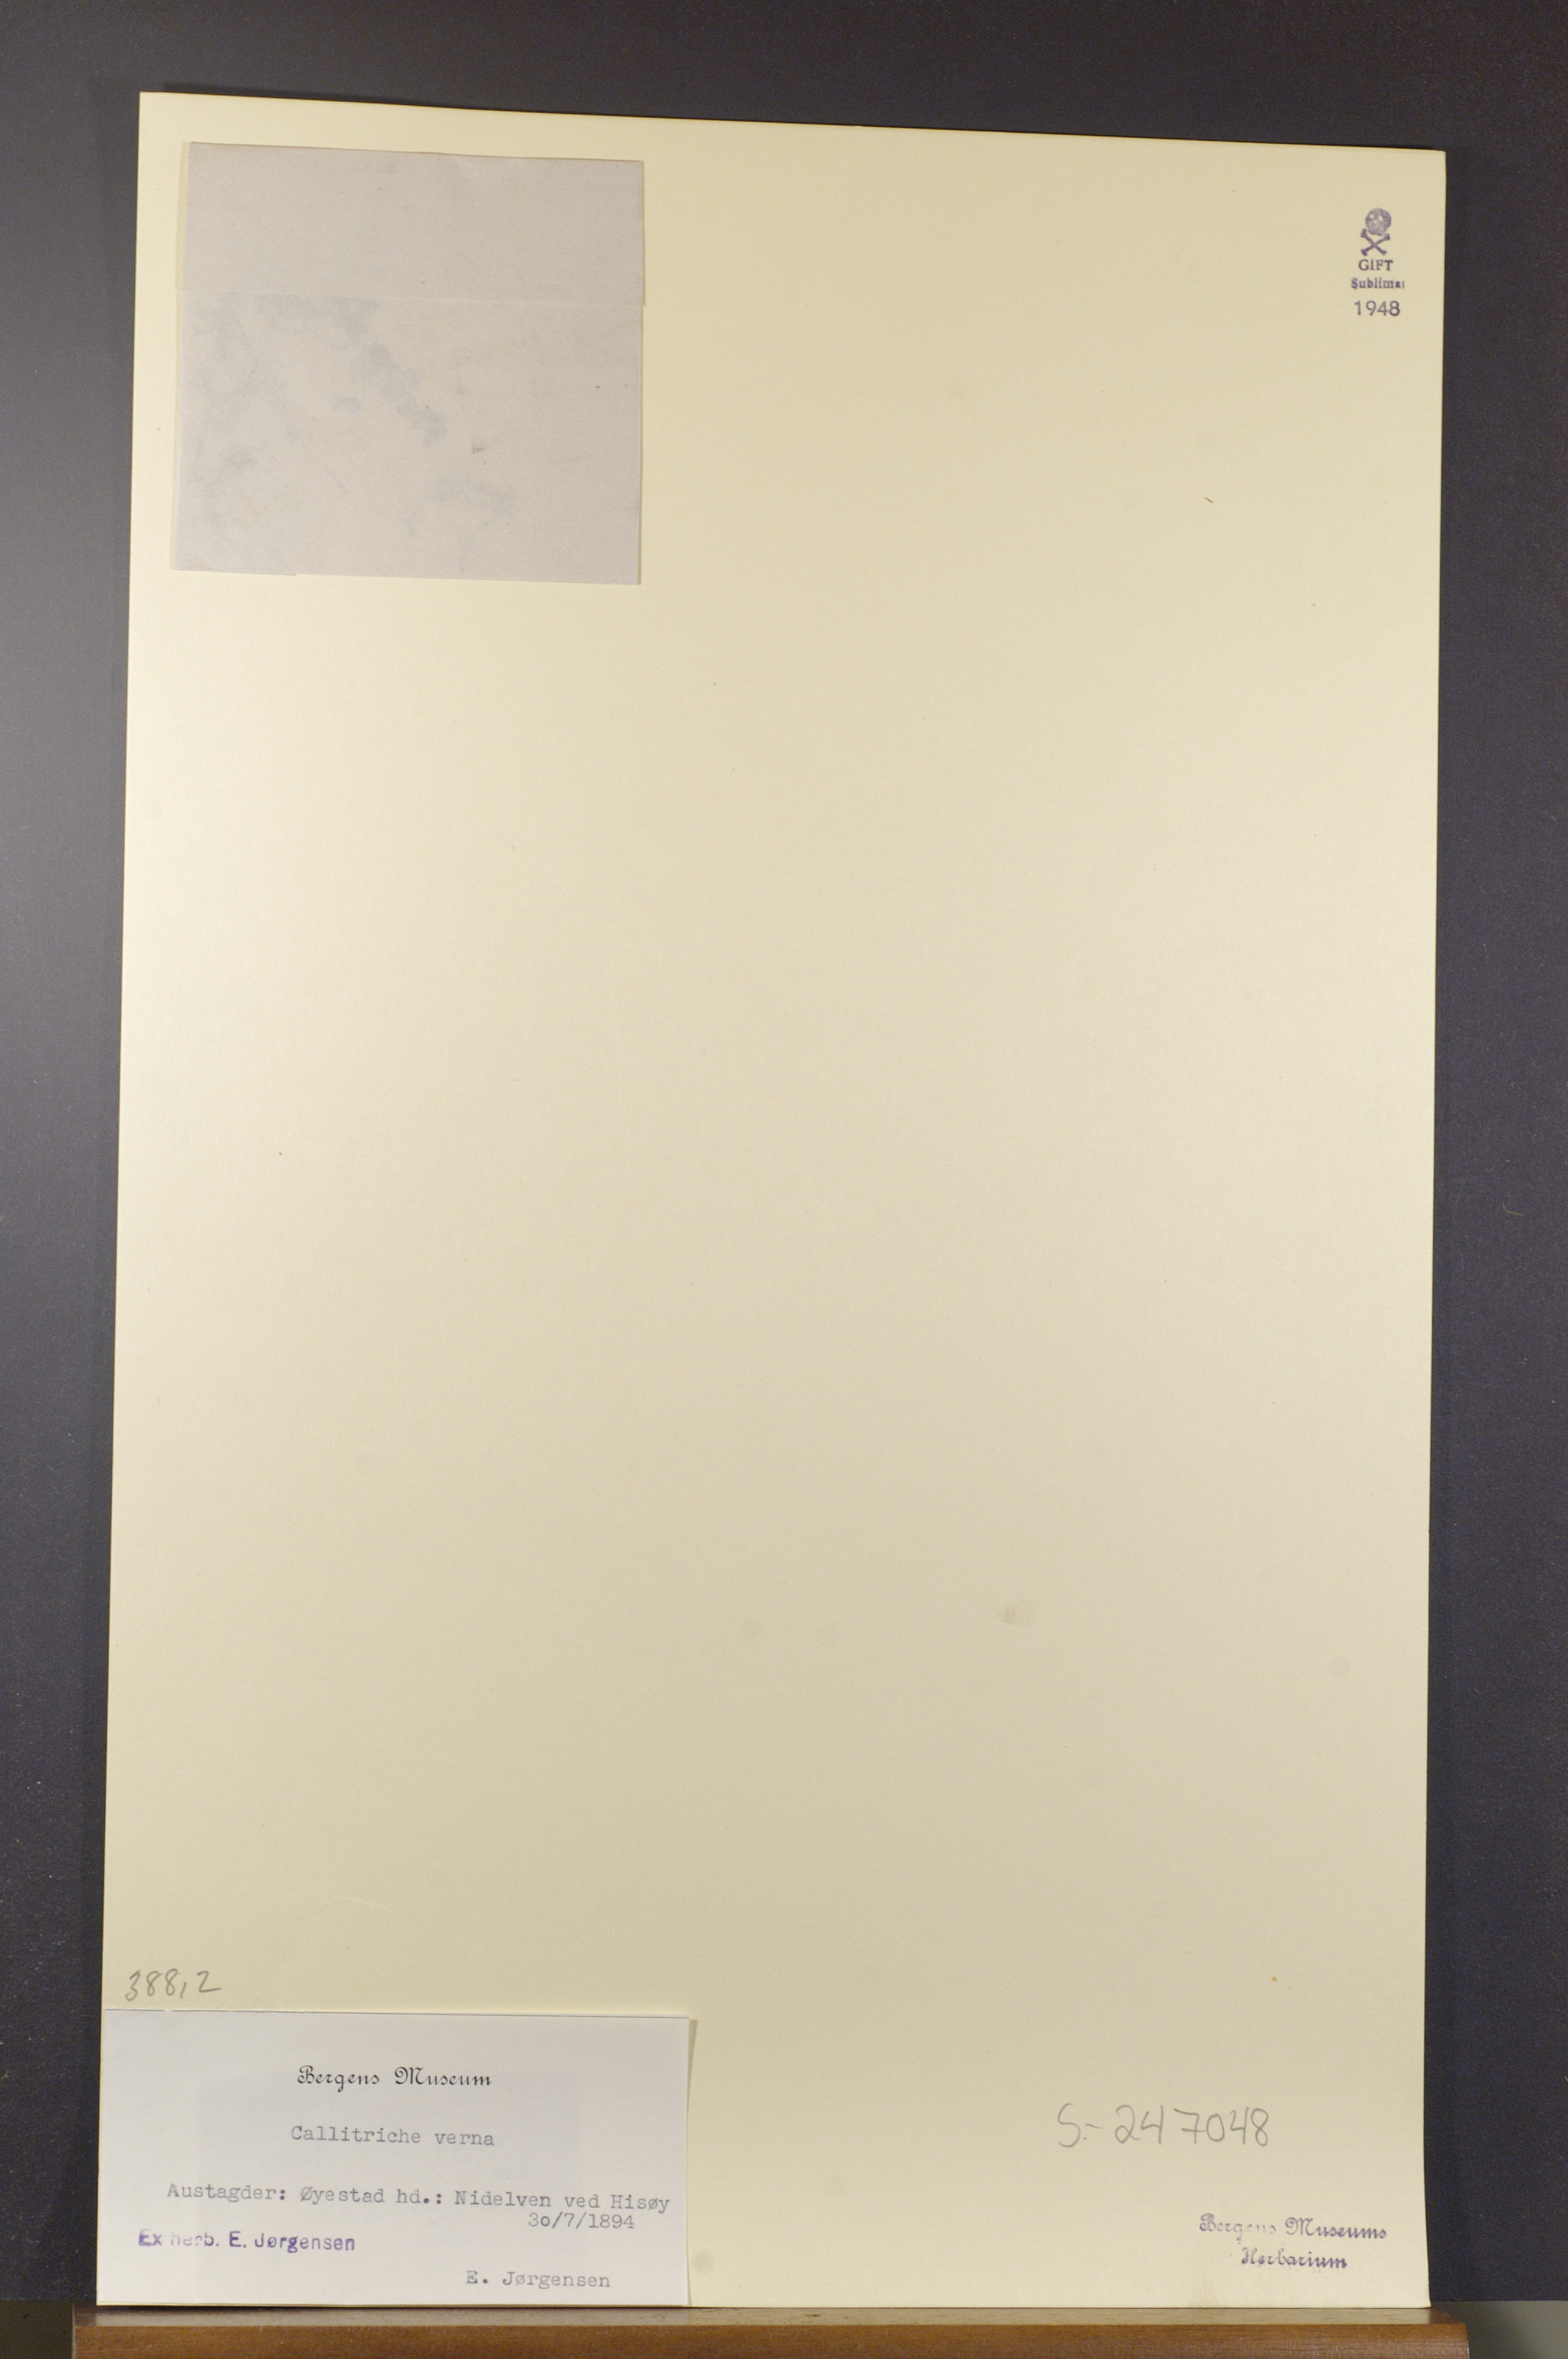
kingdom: Plantae
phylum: Tracheophyta
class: Magnoliopsida
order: Lamiales
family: Plantaginaceae
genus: Callitriche
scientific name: Callitriche palustris
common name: Spring water-starwort
